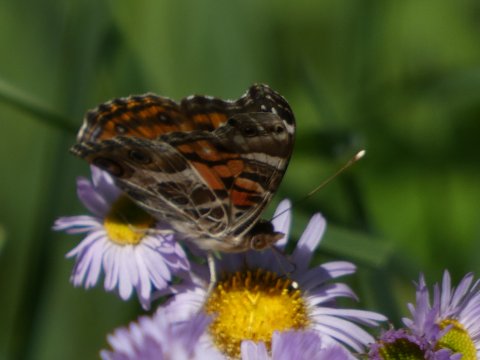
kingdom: Animalia
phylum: Arthropoda
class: Insecta
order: Lepidoptera
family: Nymphalidae
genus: Vanessa
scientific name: Vanessa virginiensis
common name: American Lady
